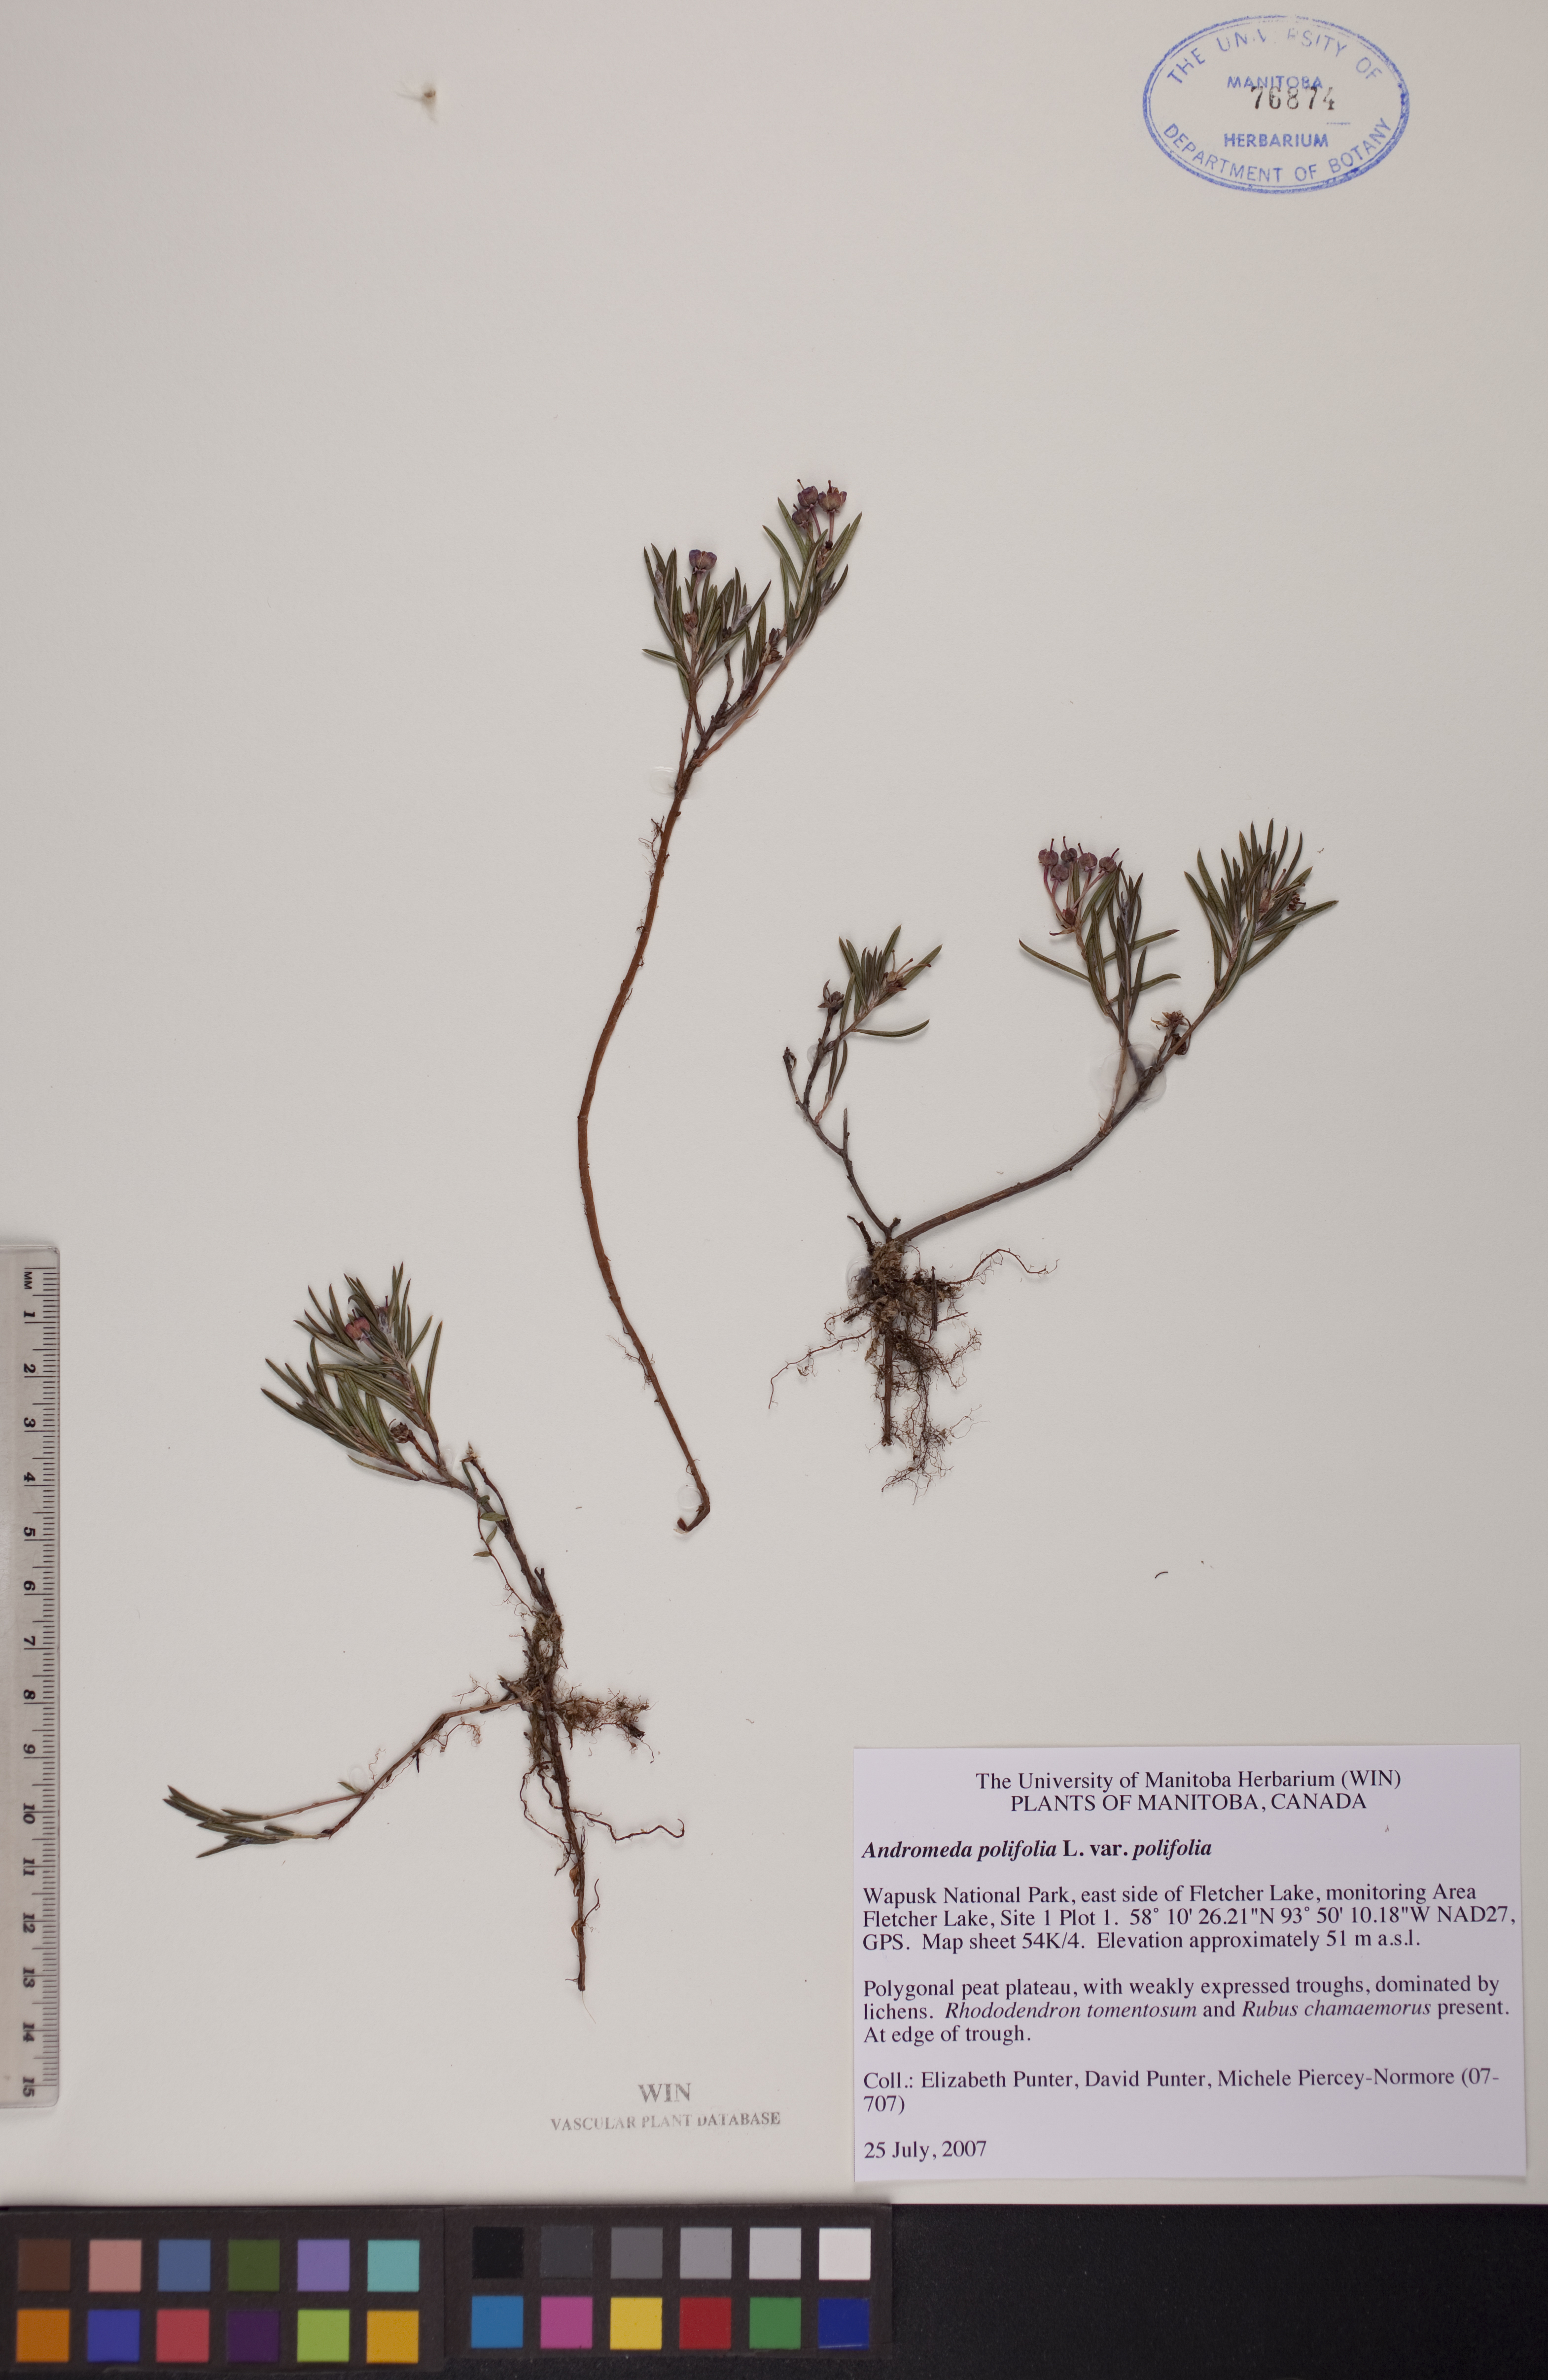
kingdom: Plantae
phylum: Tracheophyta
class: Magnoliopsida
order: Ericales
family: Ericaceae
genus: Andromeda
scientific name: Andromeda polifolia
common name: Bog-rosemary
